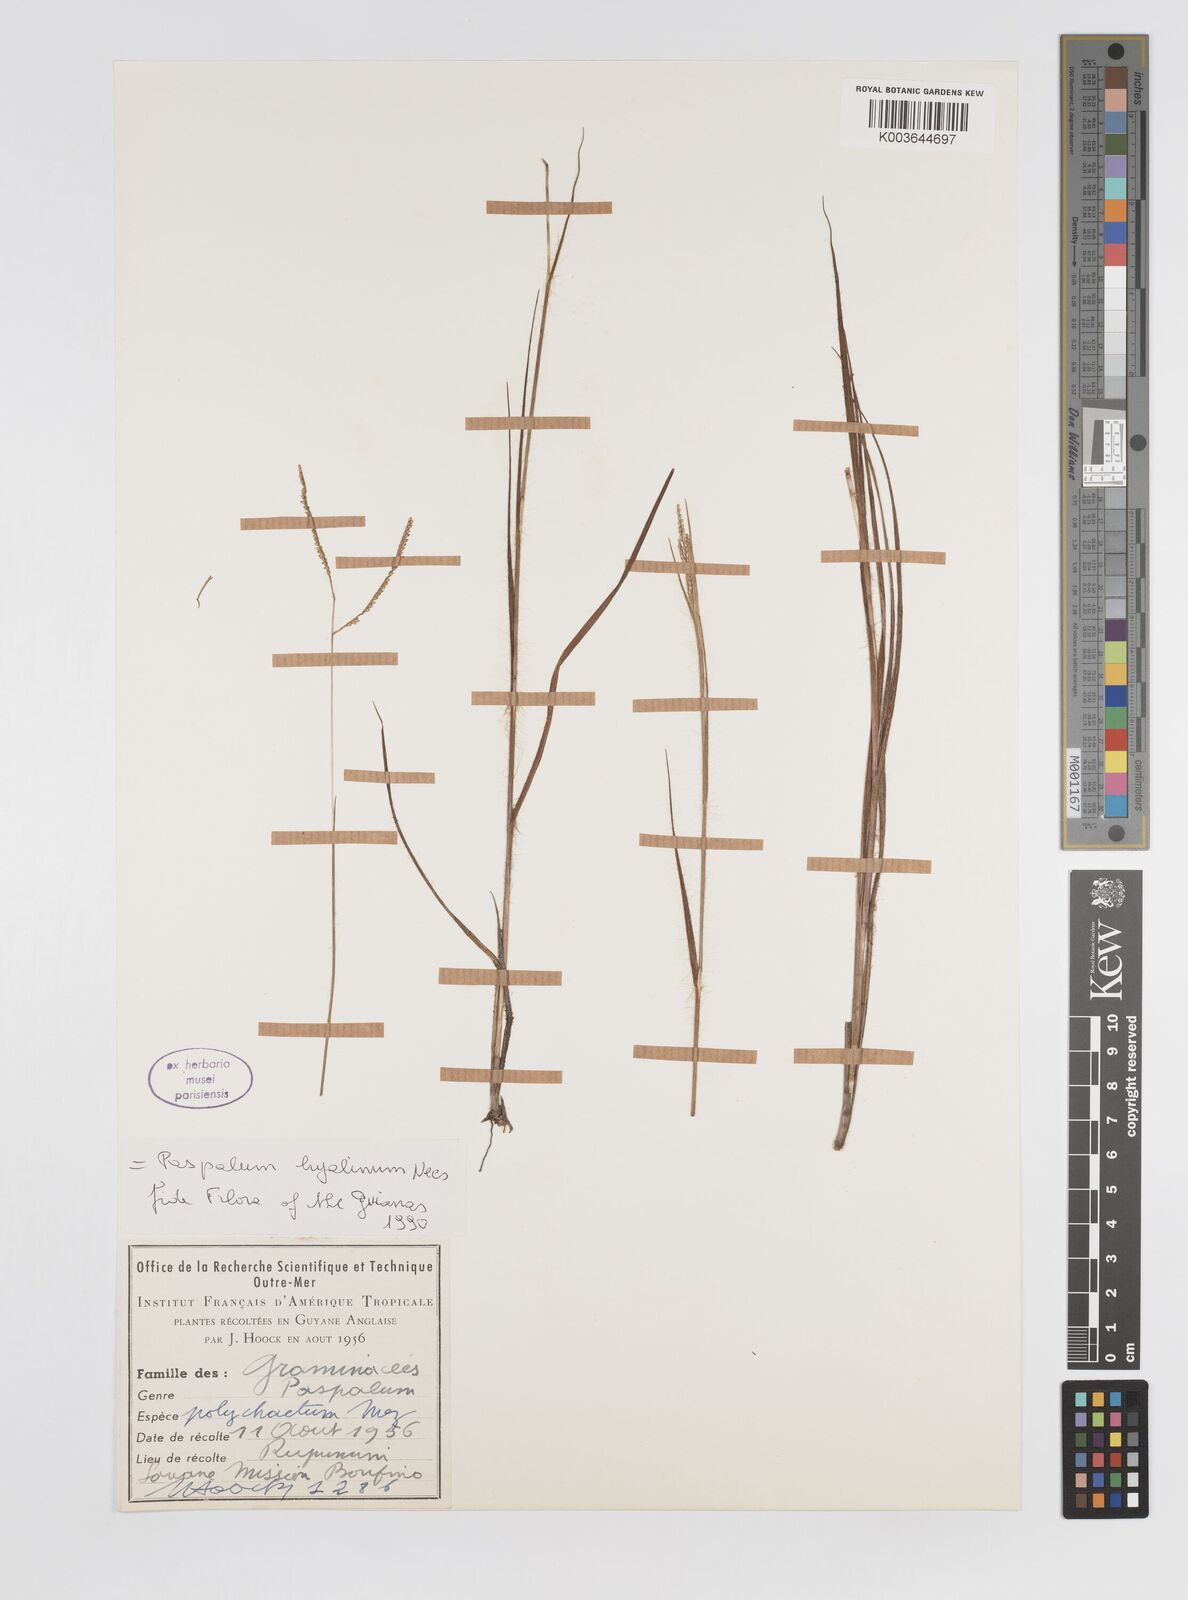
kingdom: Plantae
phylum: Tracheophyta
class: Liliopsida
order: Poales
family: Poaceae
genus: Paspalum
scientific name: Paspalum hyalinum
